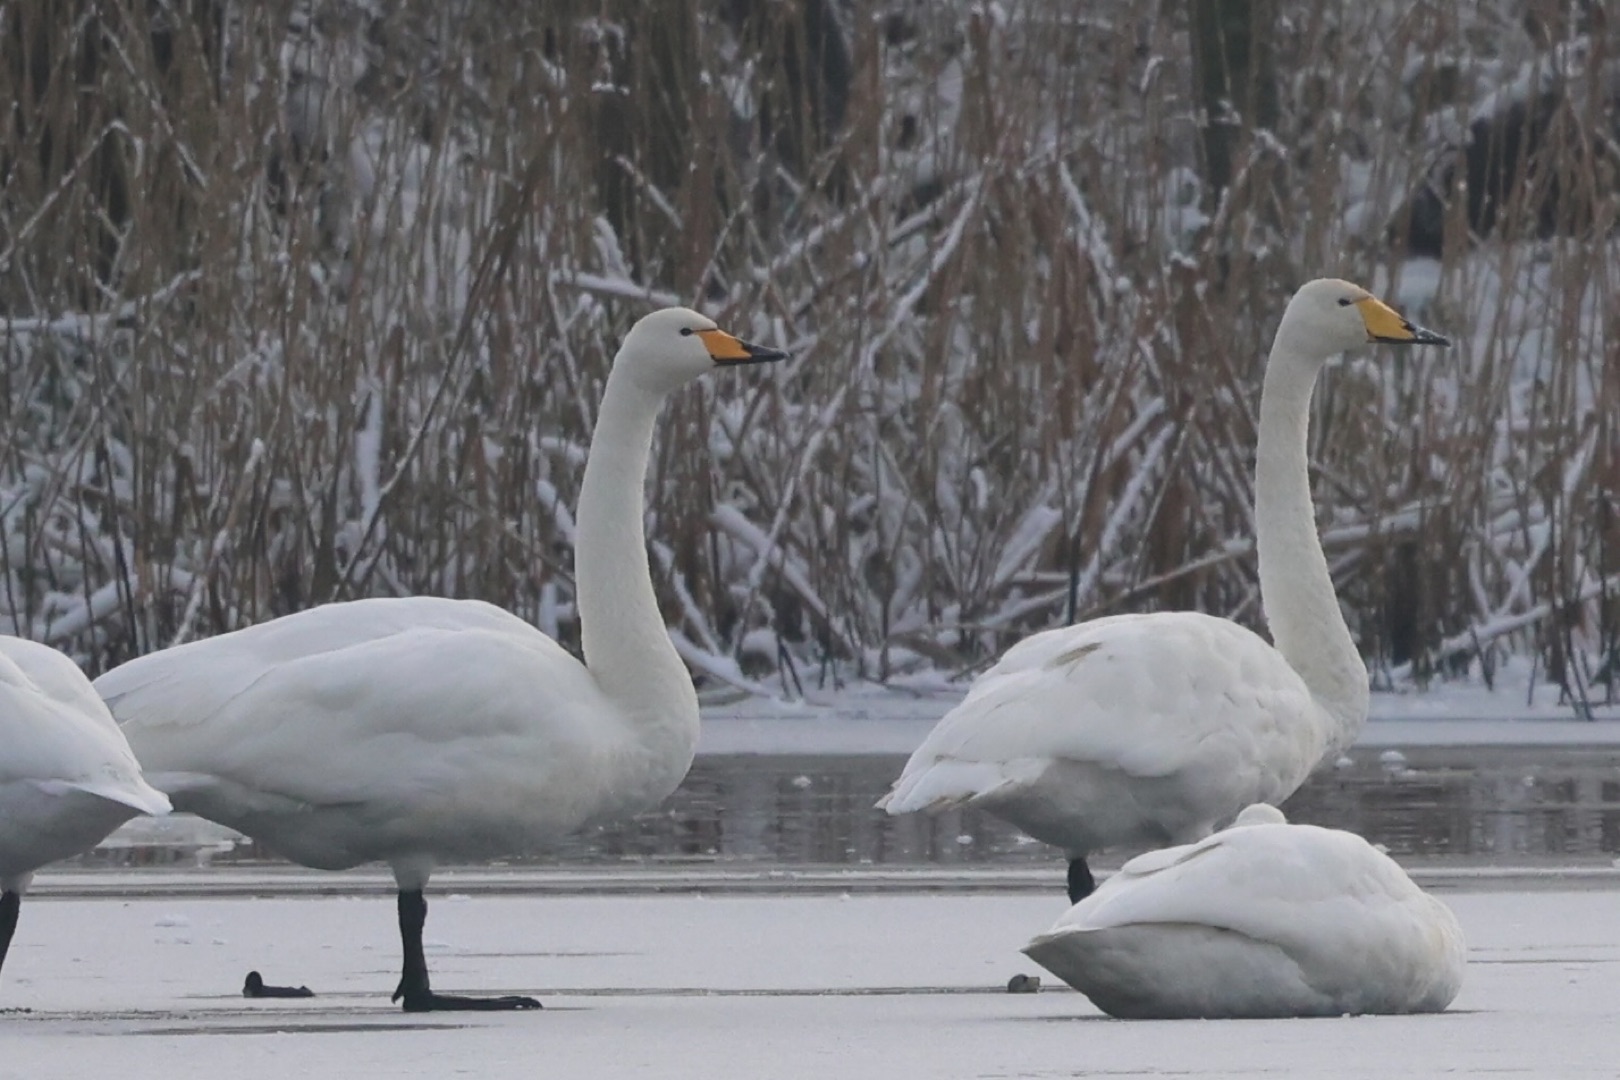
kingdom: Animalia
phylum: Chordata
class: Aves
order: Anseriformes
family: Anatidae
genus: Cygnus
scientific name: Cygnus cygnus
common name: Sangsvane
